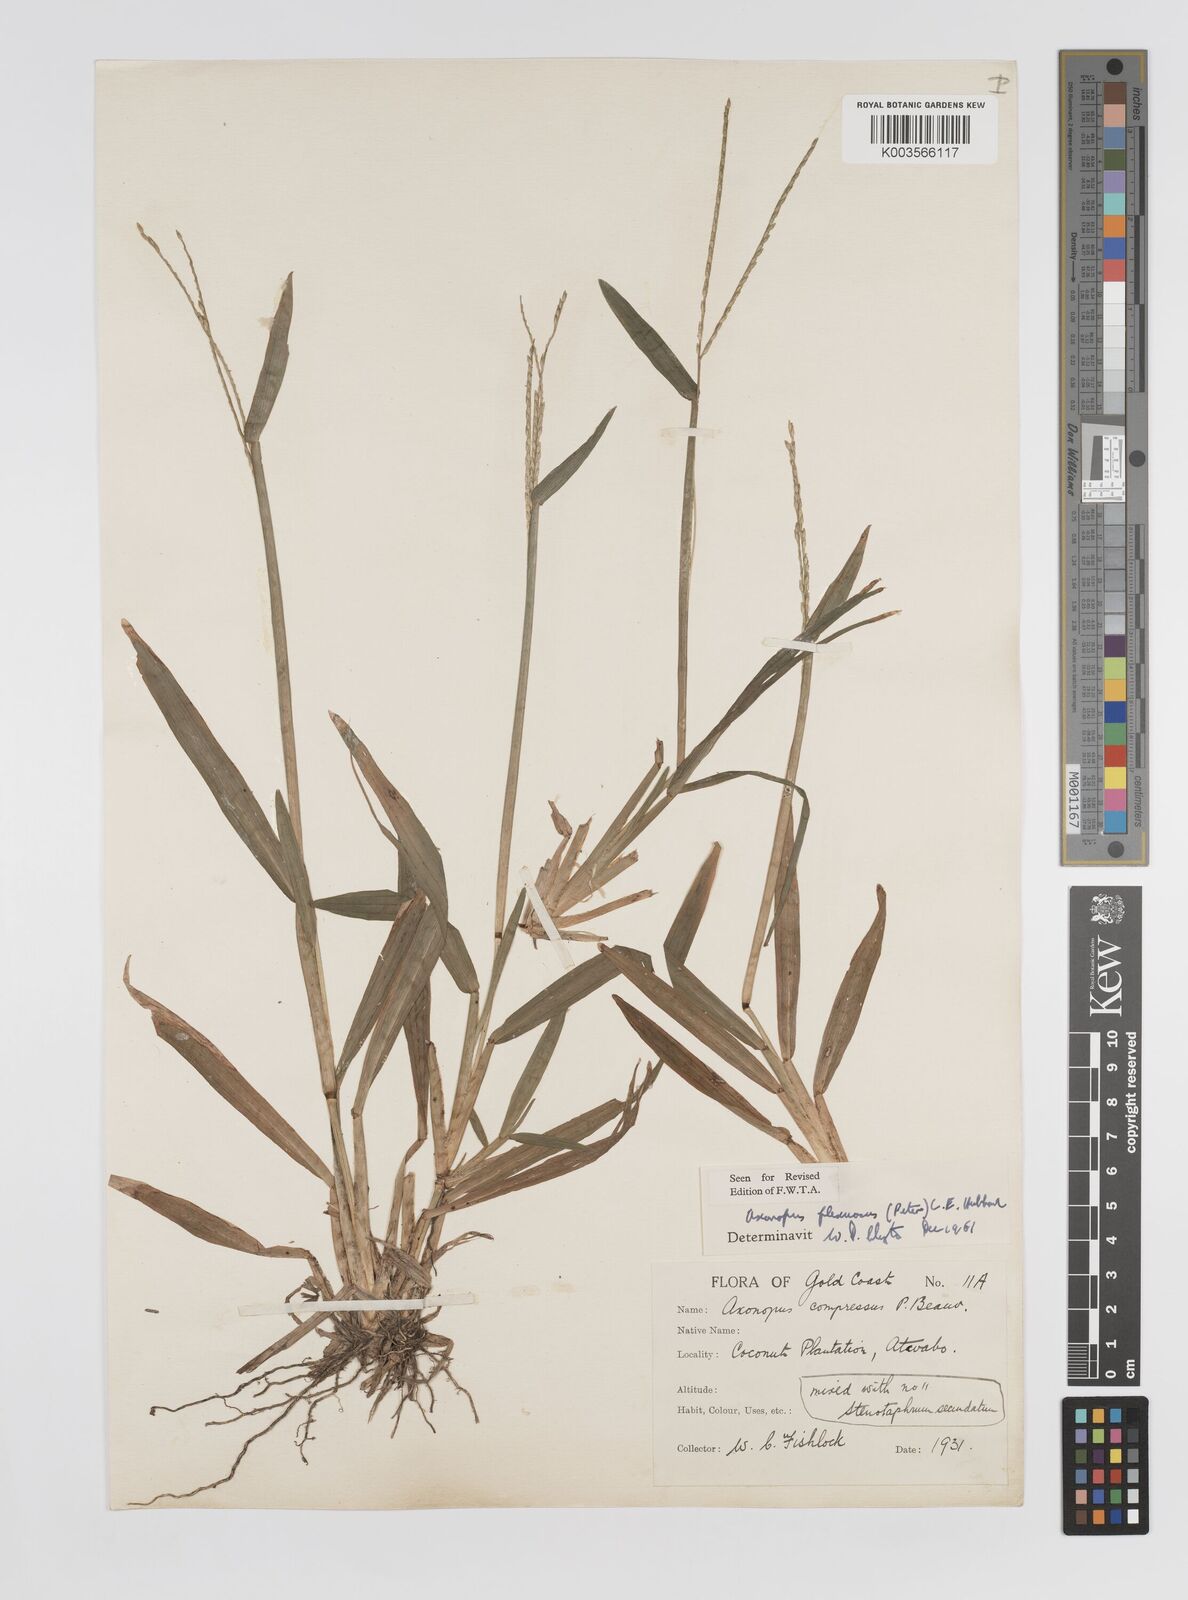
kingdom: Plantae
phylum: Tracheophyta
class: Liliopsida
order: Poales
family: Poaceae
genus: Axonopus
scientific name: Axonopus flexuosus
